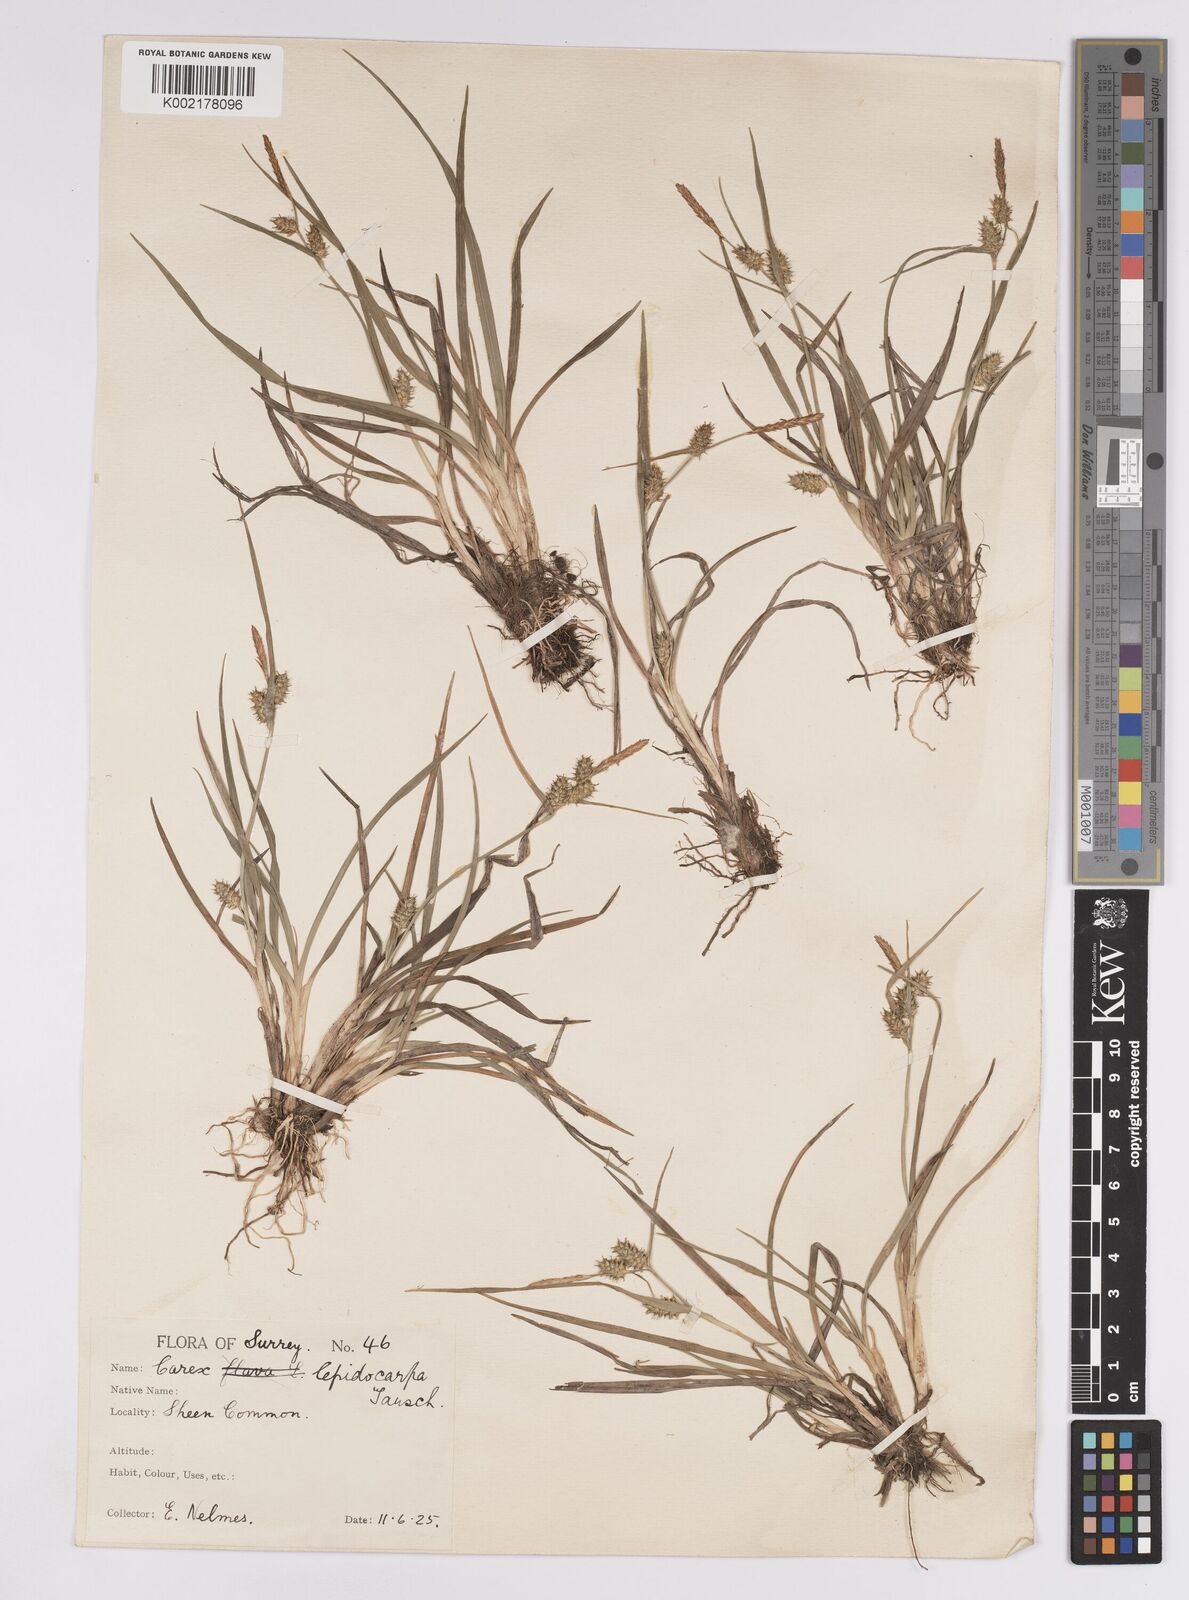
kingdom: Plantae
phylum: Tracheophyta
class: Liliopsida
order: Poales
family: Cyperaceae
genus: Carex
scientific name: Carex demissa
